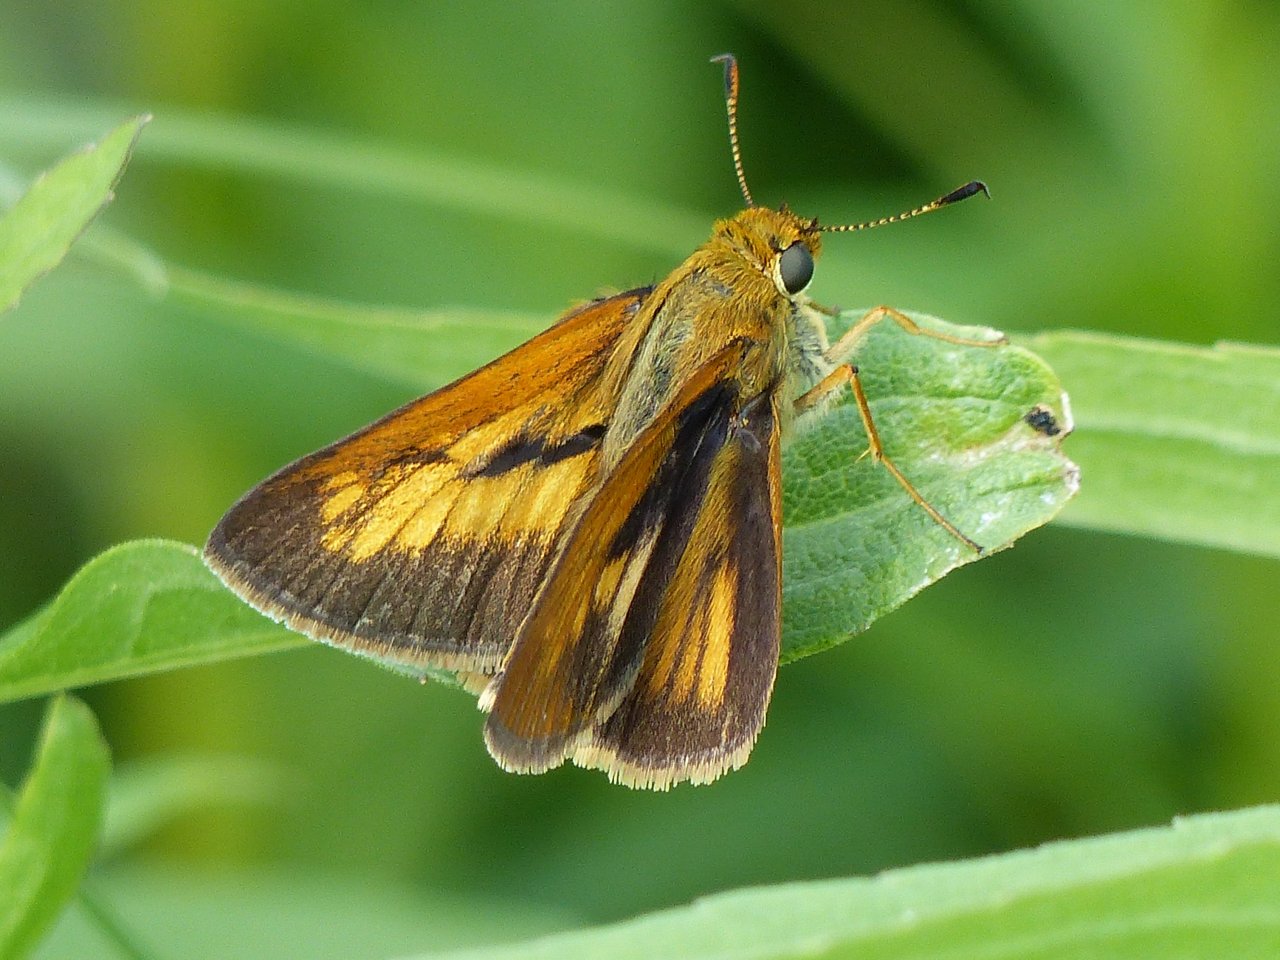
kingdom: Animalia
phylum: Arthropoda
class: Insecta
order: Lepidoptera
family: Hesperiidae
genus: Euphyes
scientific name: Euphyes dion
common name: Dion Skipper
